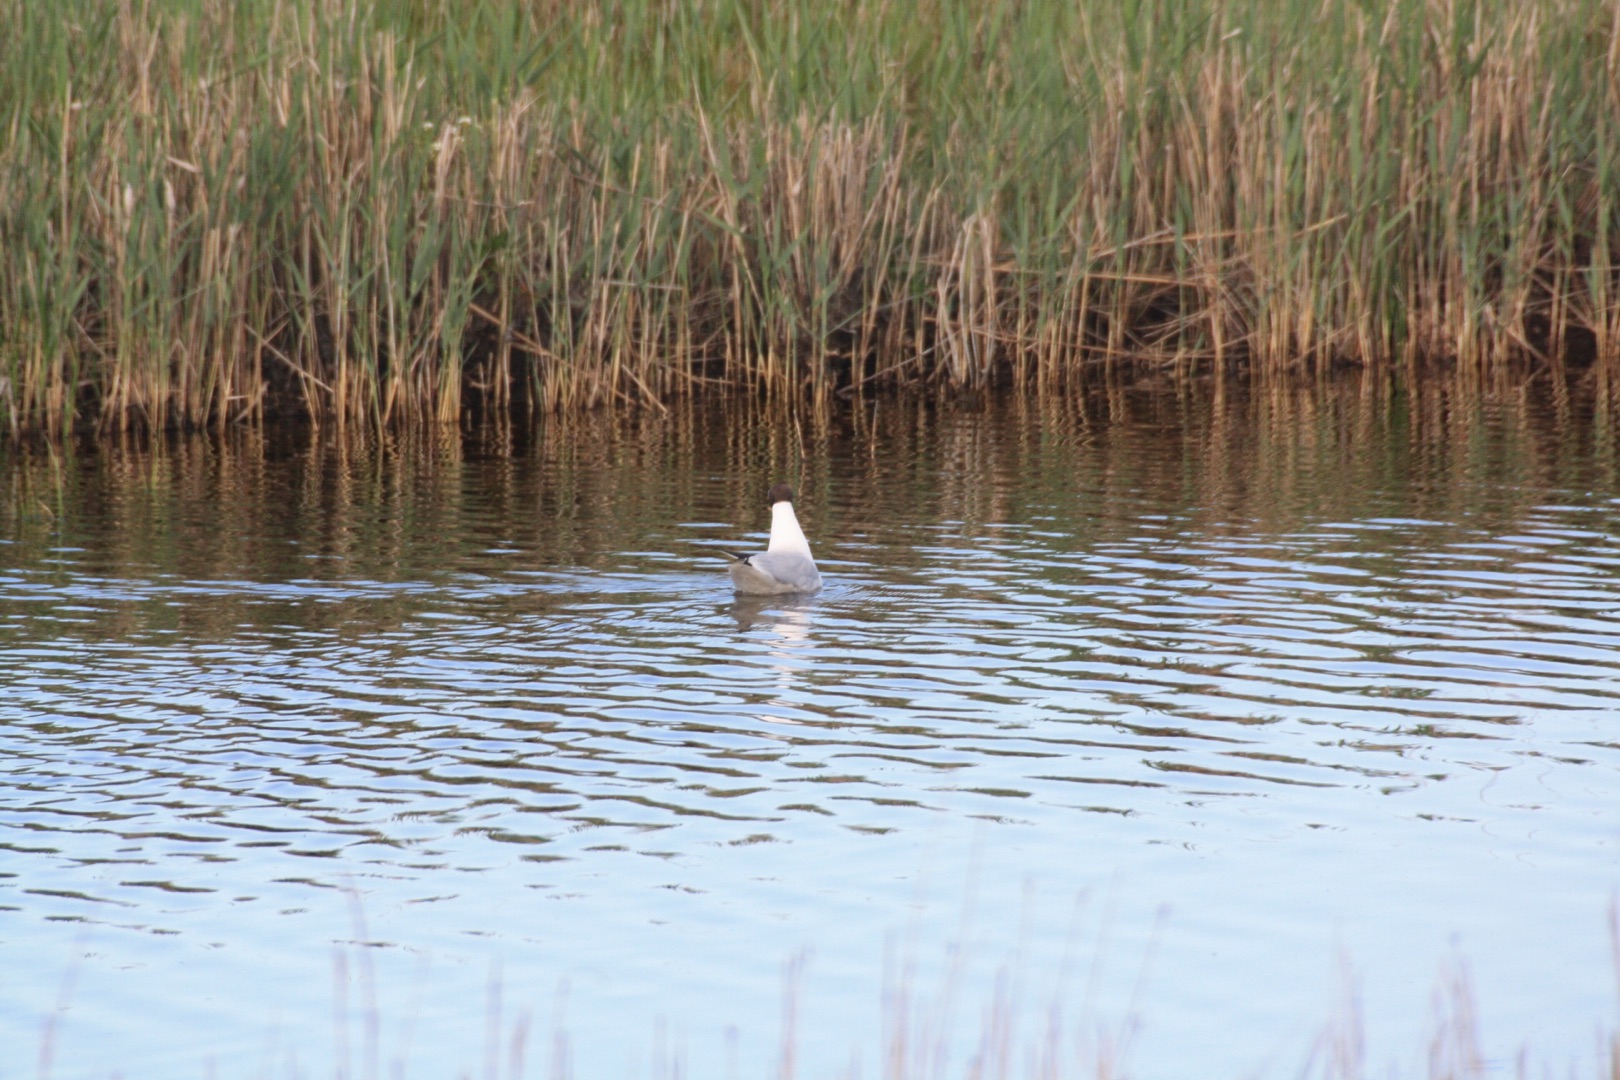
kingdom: Animalia
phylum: Chordata
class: Aves
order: Charadriiformes
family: Laridae
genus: Chroicocephalus
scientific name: Chroicocephalus ridibundus
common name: Hættemåge
